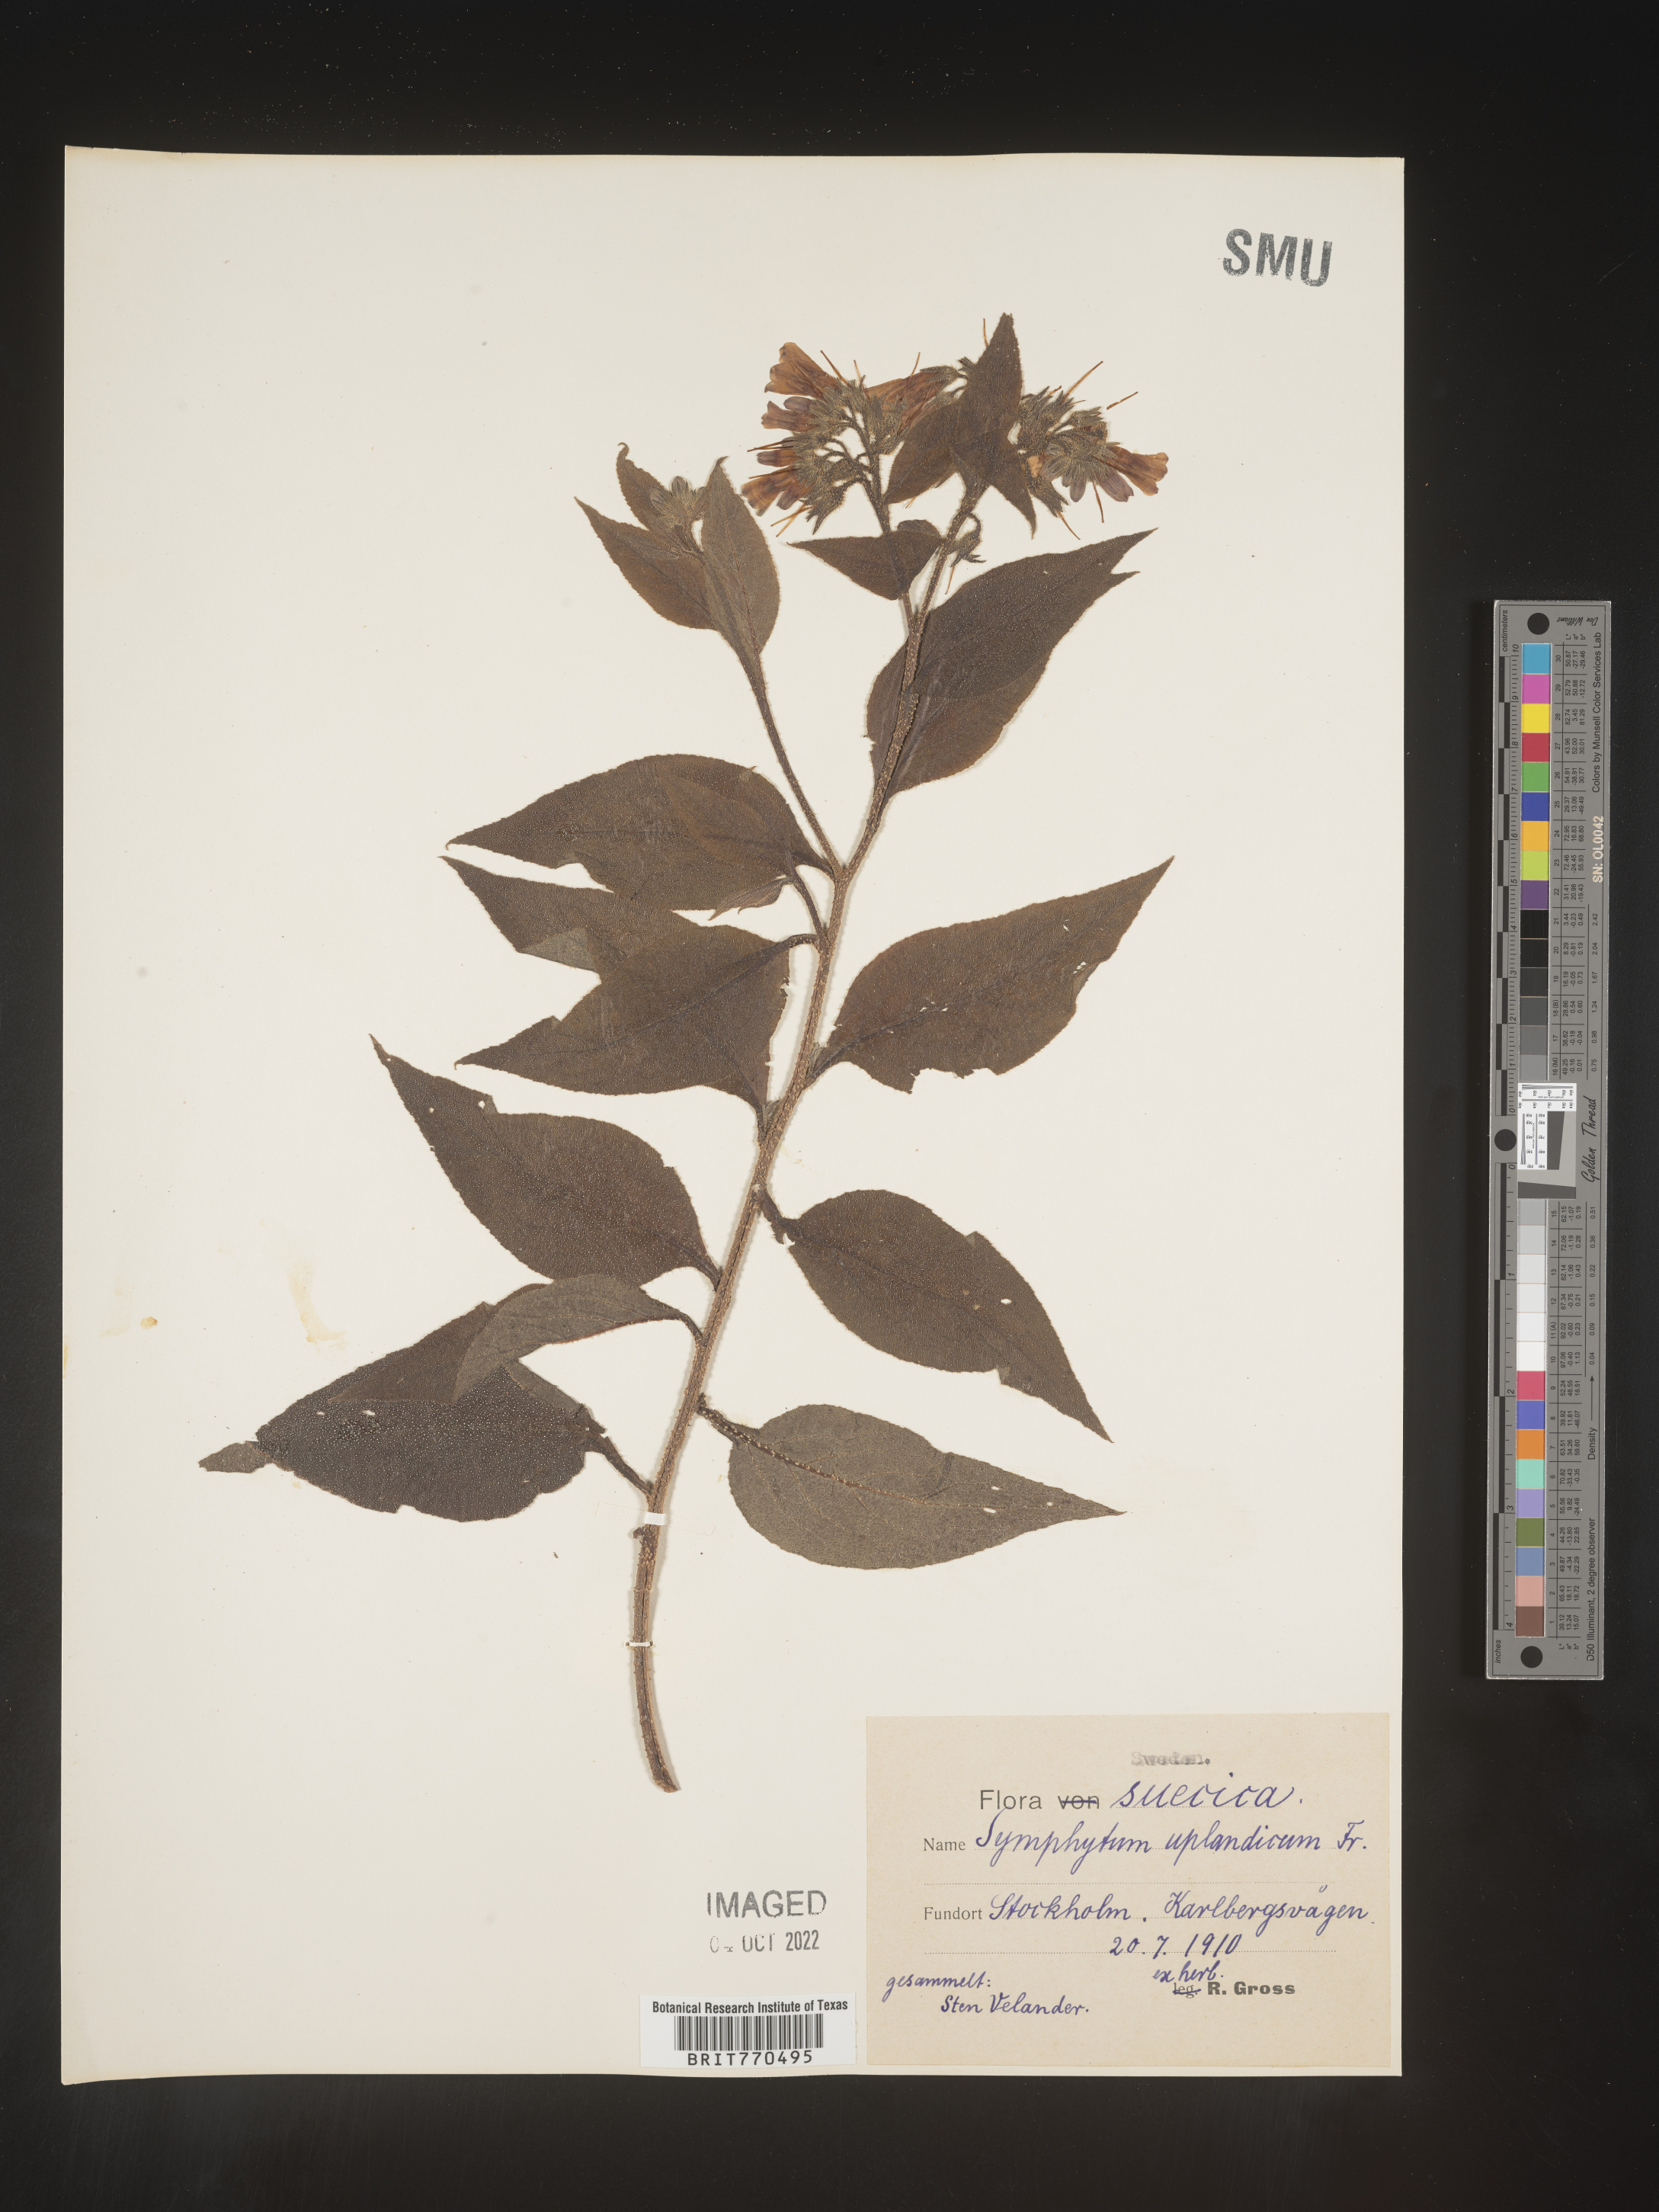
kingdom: Plantae
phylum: Tracheophyta
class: Magnoliopsida
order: Boraginales
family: Boraginaceae
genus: Symphytum
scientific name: Symphytum
